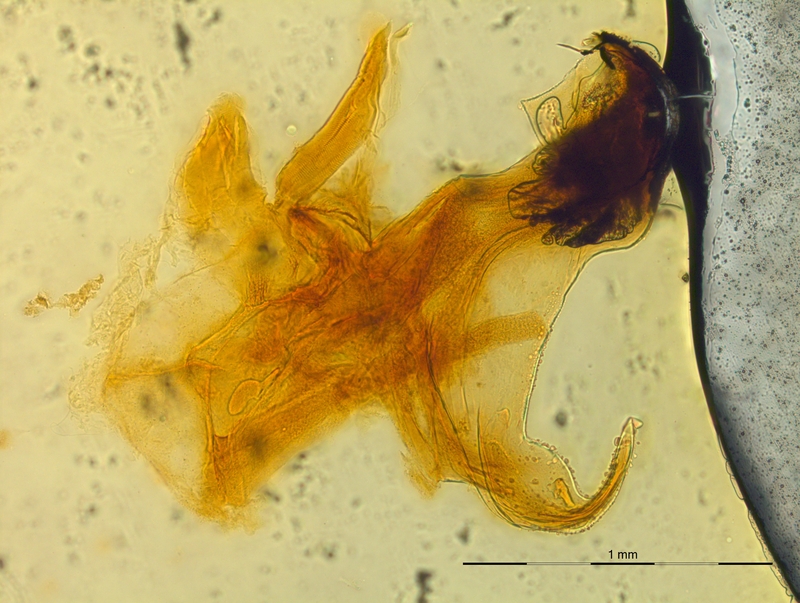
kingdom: Animalia
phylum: Arthropoda
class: Diplopoda
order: Chordeumatida
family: Craspedosomatidae
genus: Rhymogona
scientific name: Rhymogona montivaga
